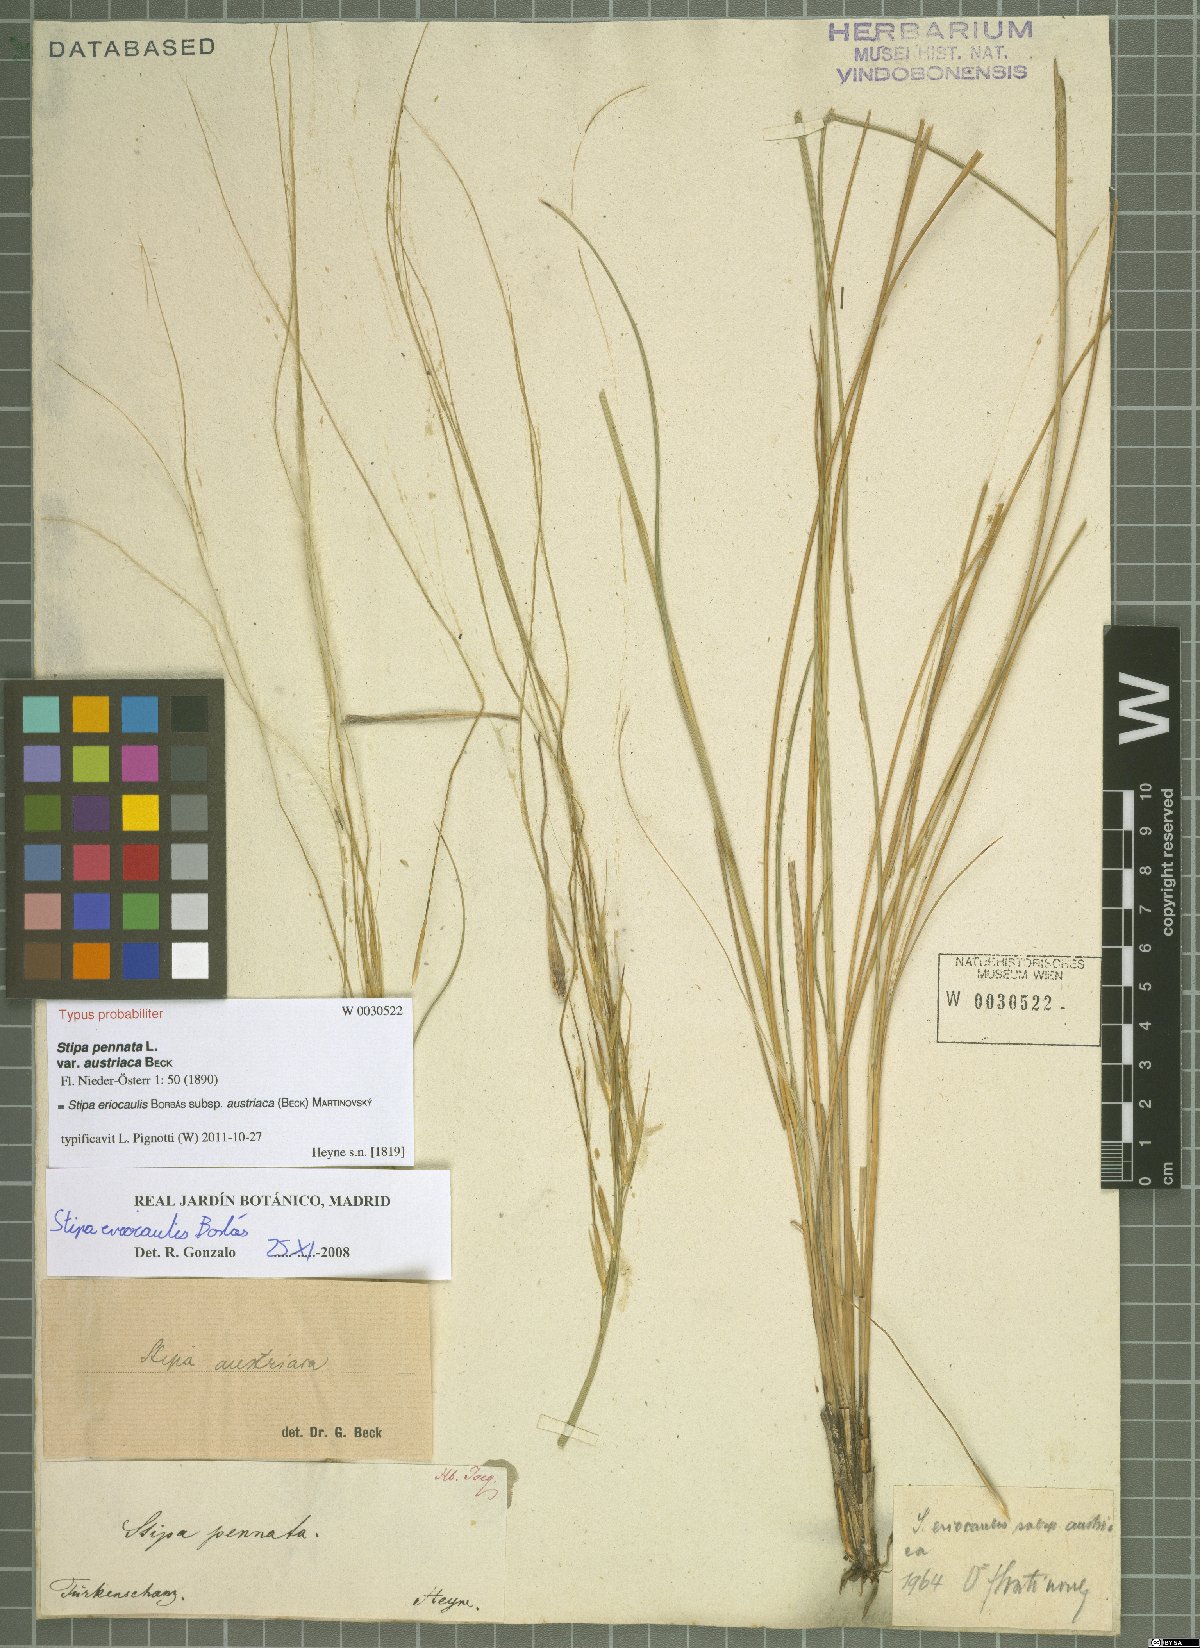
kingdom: Plantae
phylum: Tracheophyta
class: Liliopsida
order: Poales
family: Poaceae
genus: Stipa
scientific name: Stipa pennata
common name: European feather grass
